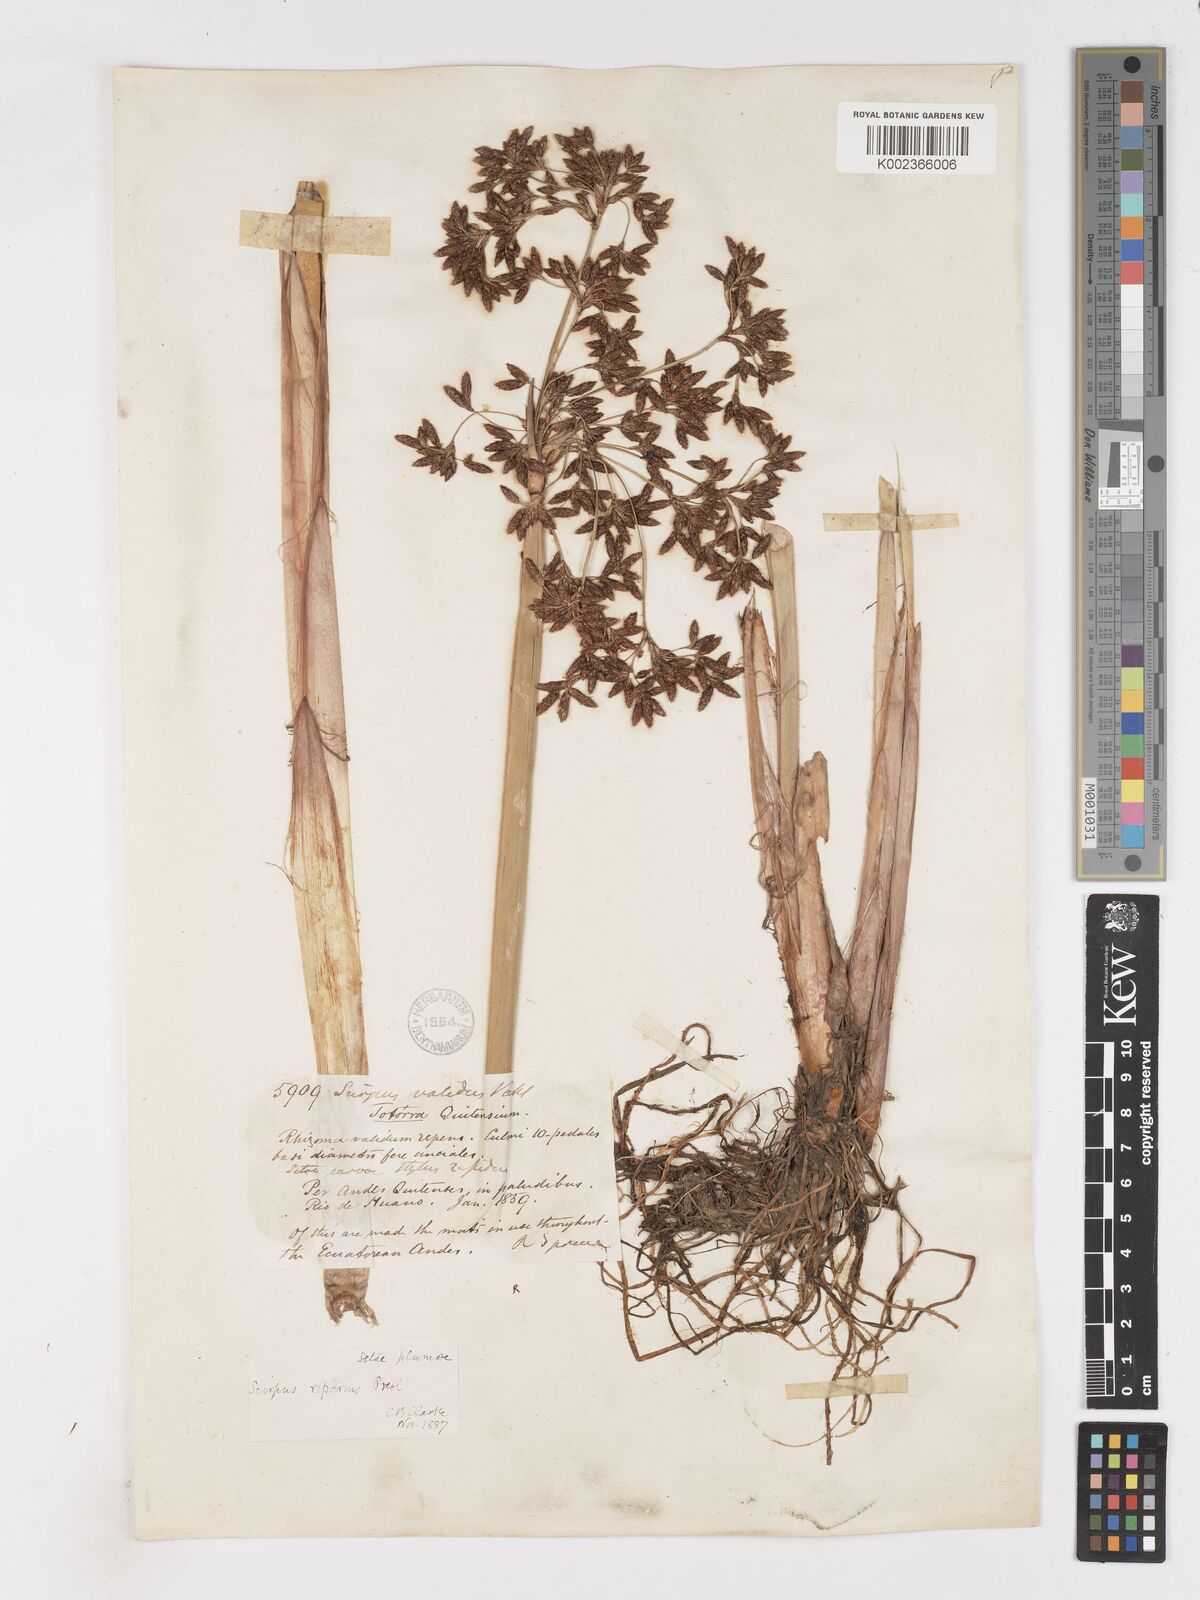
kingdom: Plantae
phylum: Tracheophyta
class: Liliopsida
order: Poales
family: Cyperaceae
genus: Schoenoplectus
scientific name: Schoenoplectus californicus
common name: California bulrush
